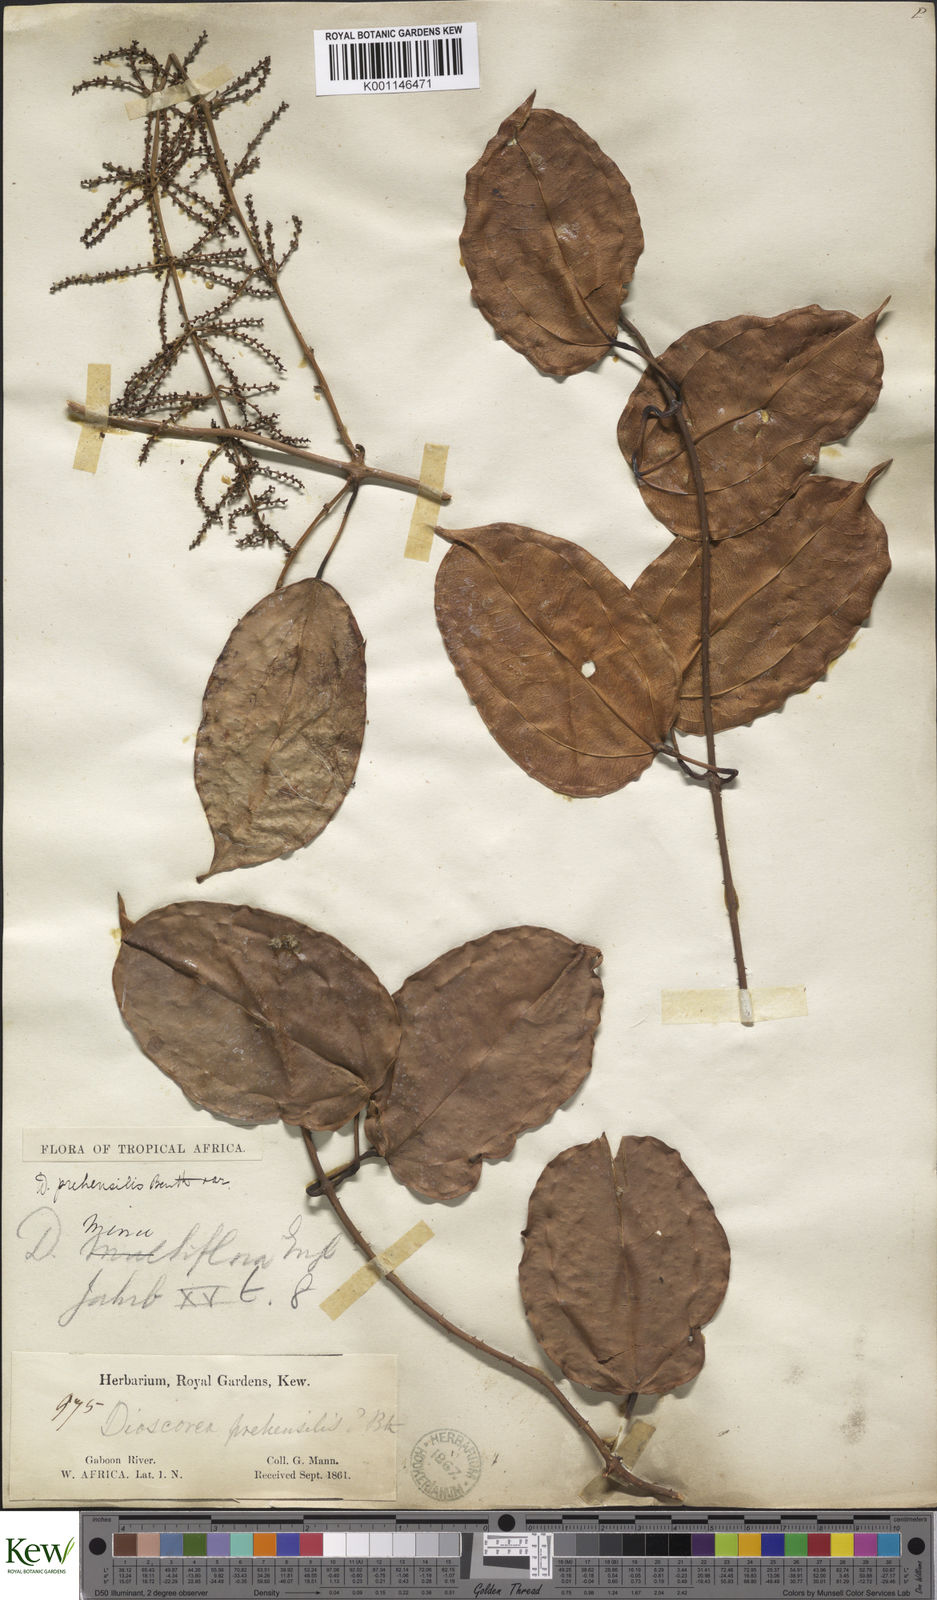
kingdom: Plantae
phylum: Tracheophyta
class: Liliopsida
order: Dioscoreales
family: Dioscoreaceae
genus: Dioscorea
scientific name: Dioscorea minutiflora
